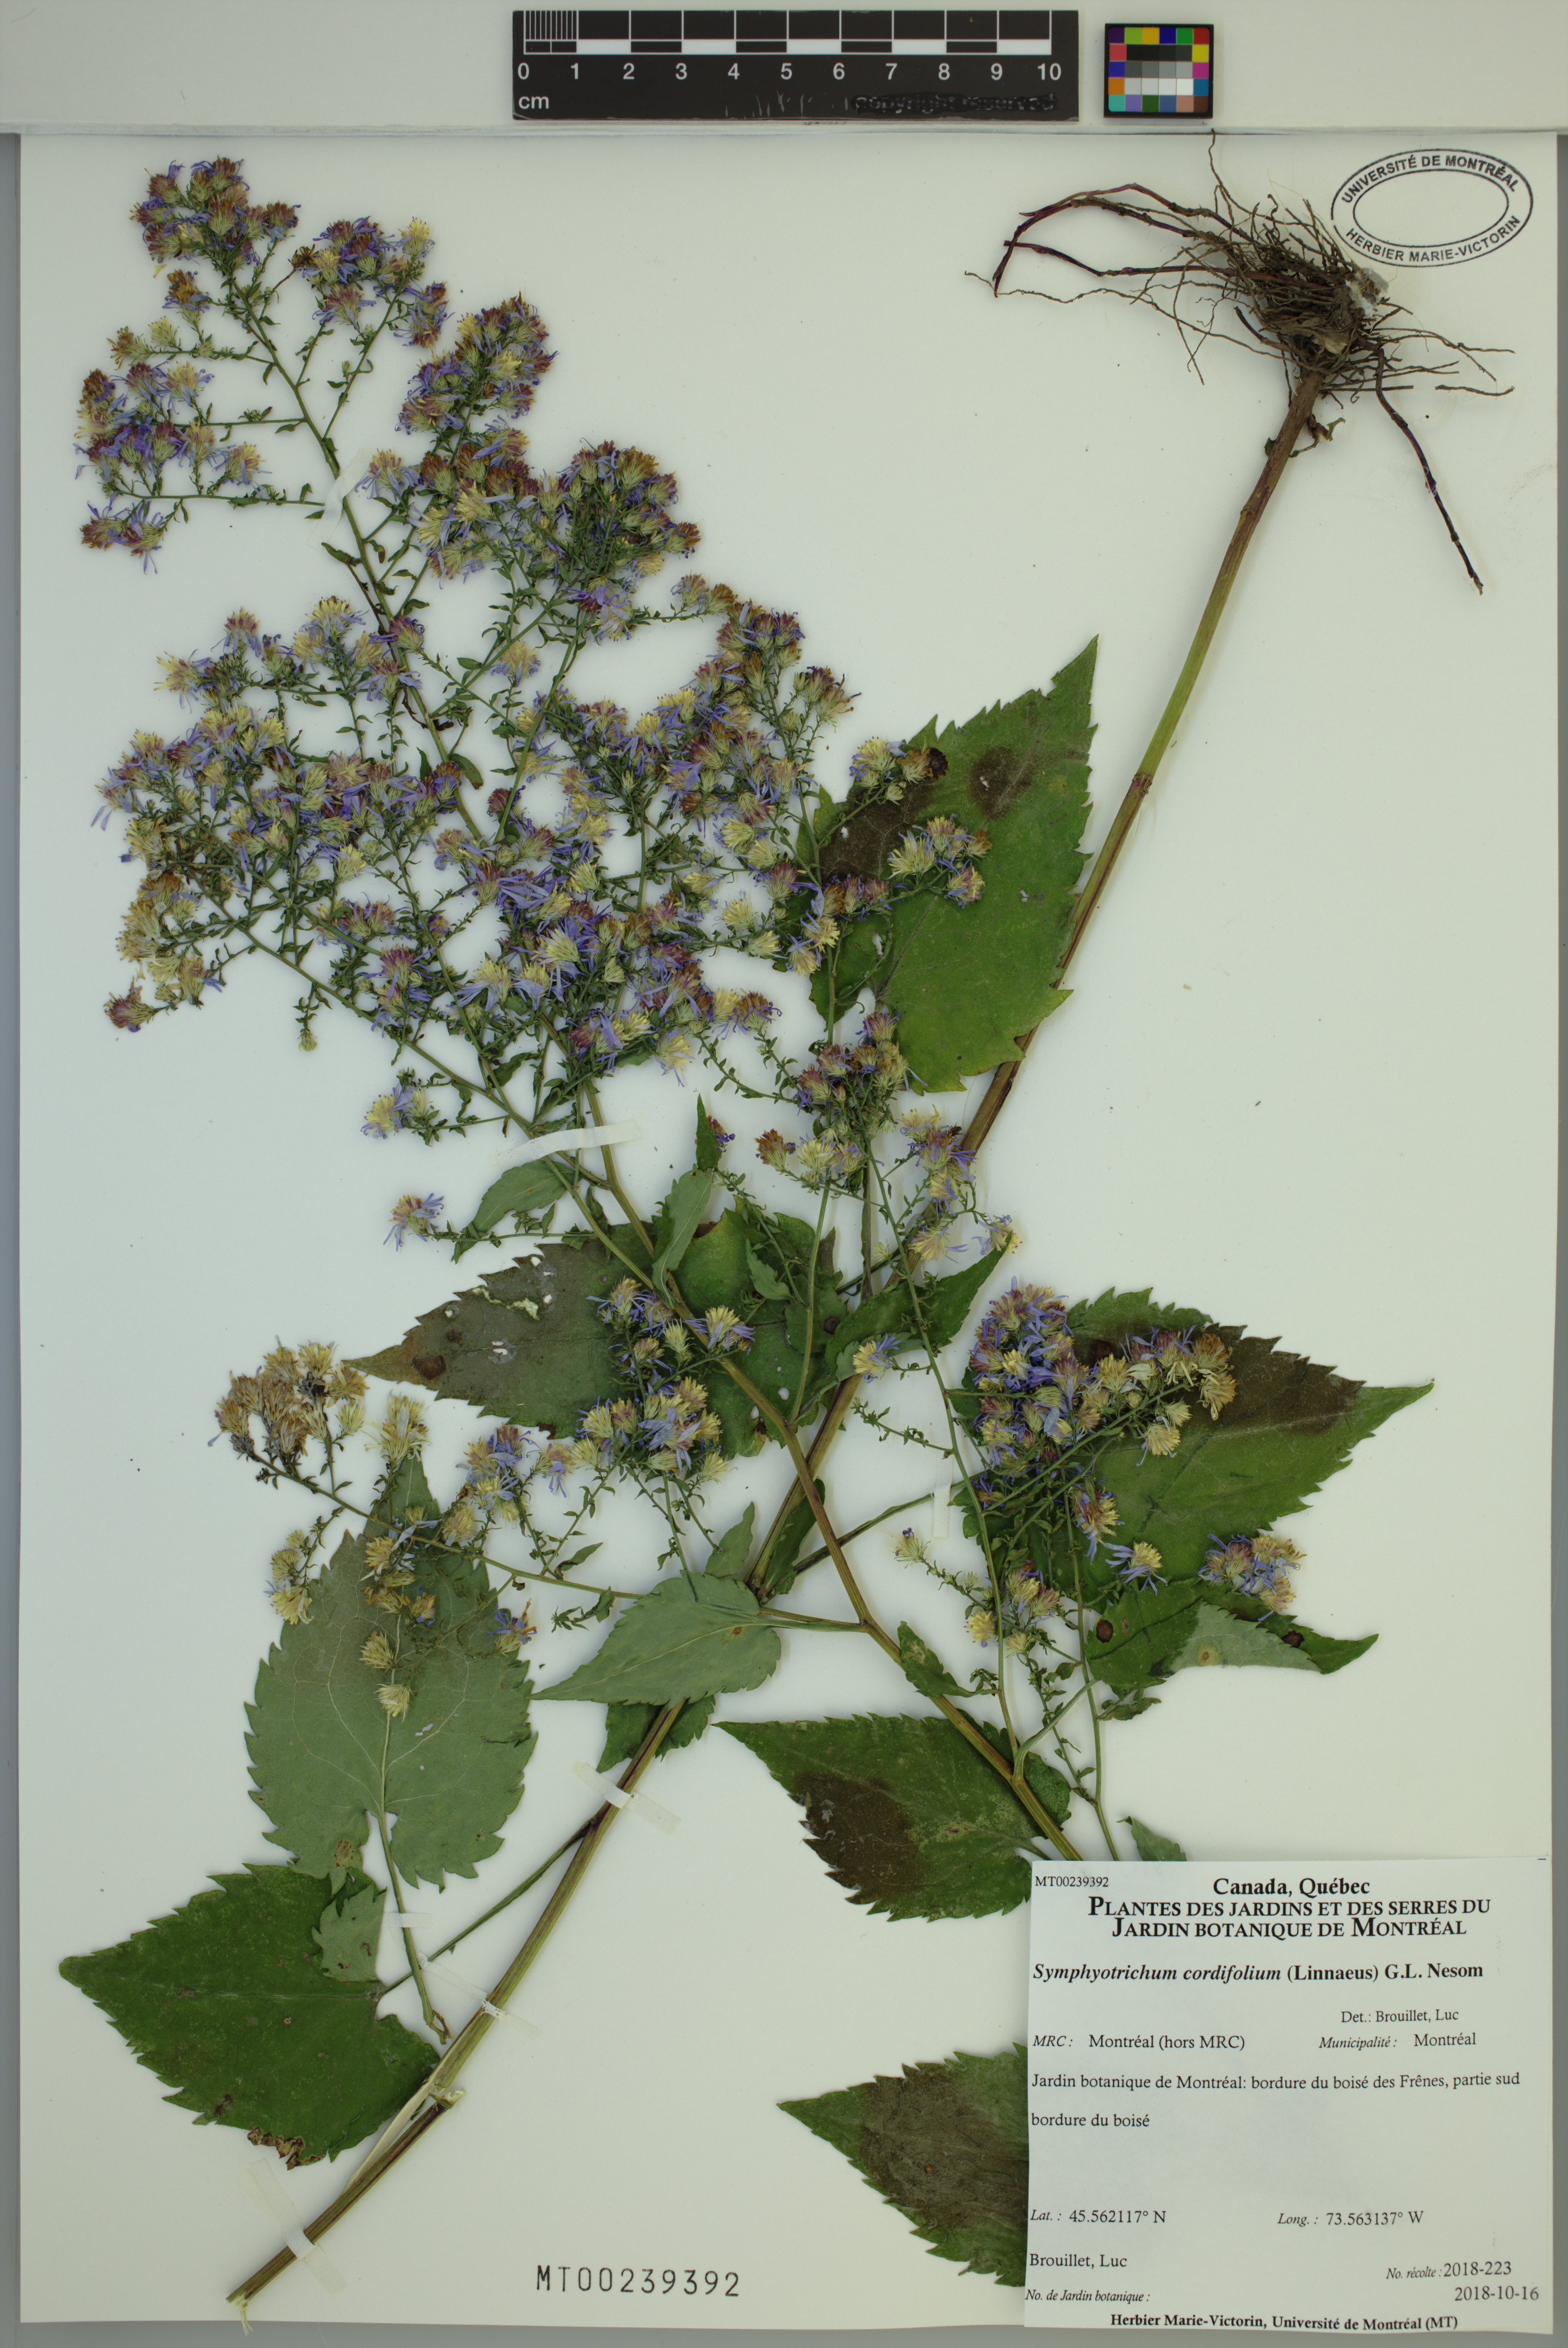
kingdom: Plantae
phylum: Tracheophyta
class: Magnoliopsida
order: Asterales
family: Asteraceae
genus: Symphyotrichum
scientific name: Symphyotrichum cordifolium
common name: Beeweed
